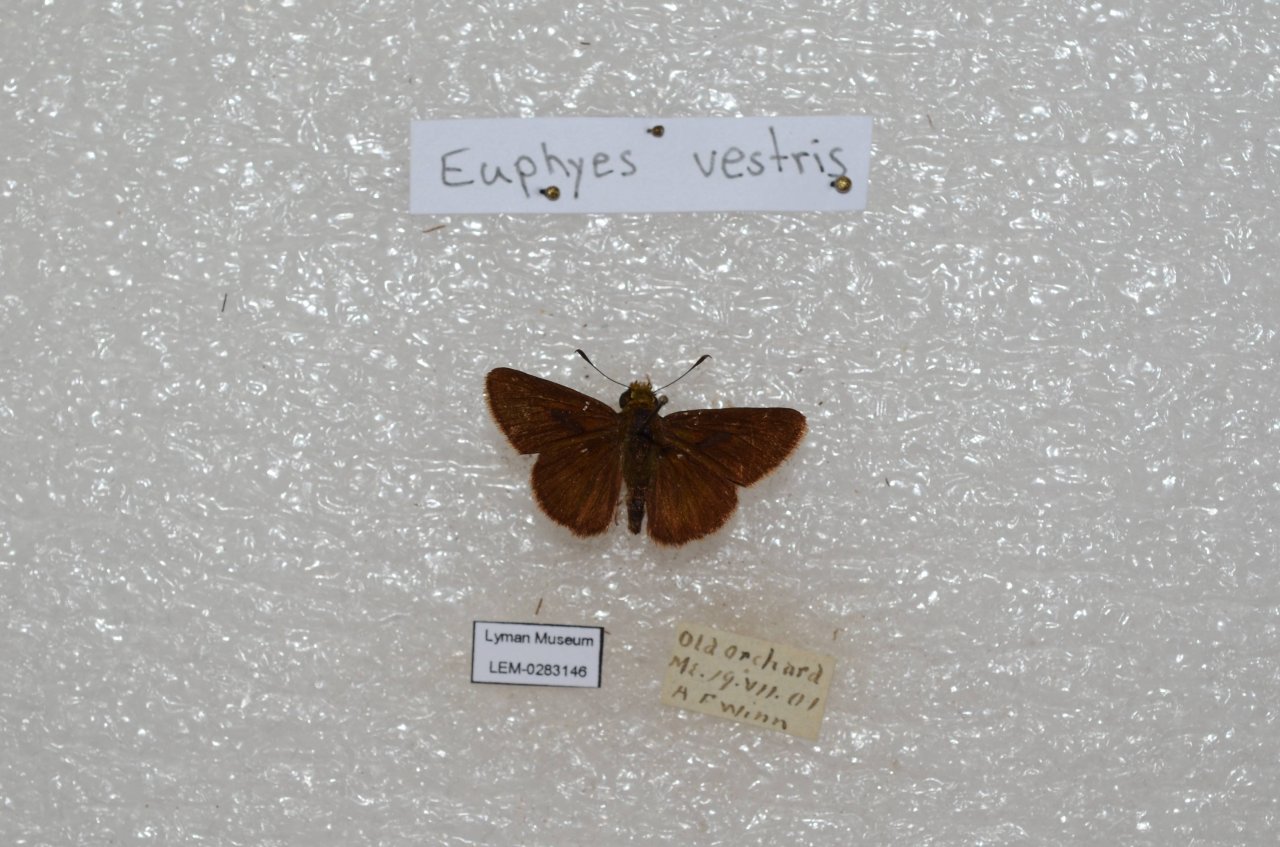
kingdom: Animalia
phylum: Arthropoda
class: Insecta
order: Lepidoptera
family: Hesperiidae
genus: Euphyes
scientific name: Euphyes vestris
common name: Dun Skipper
